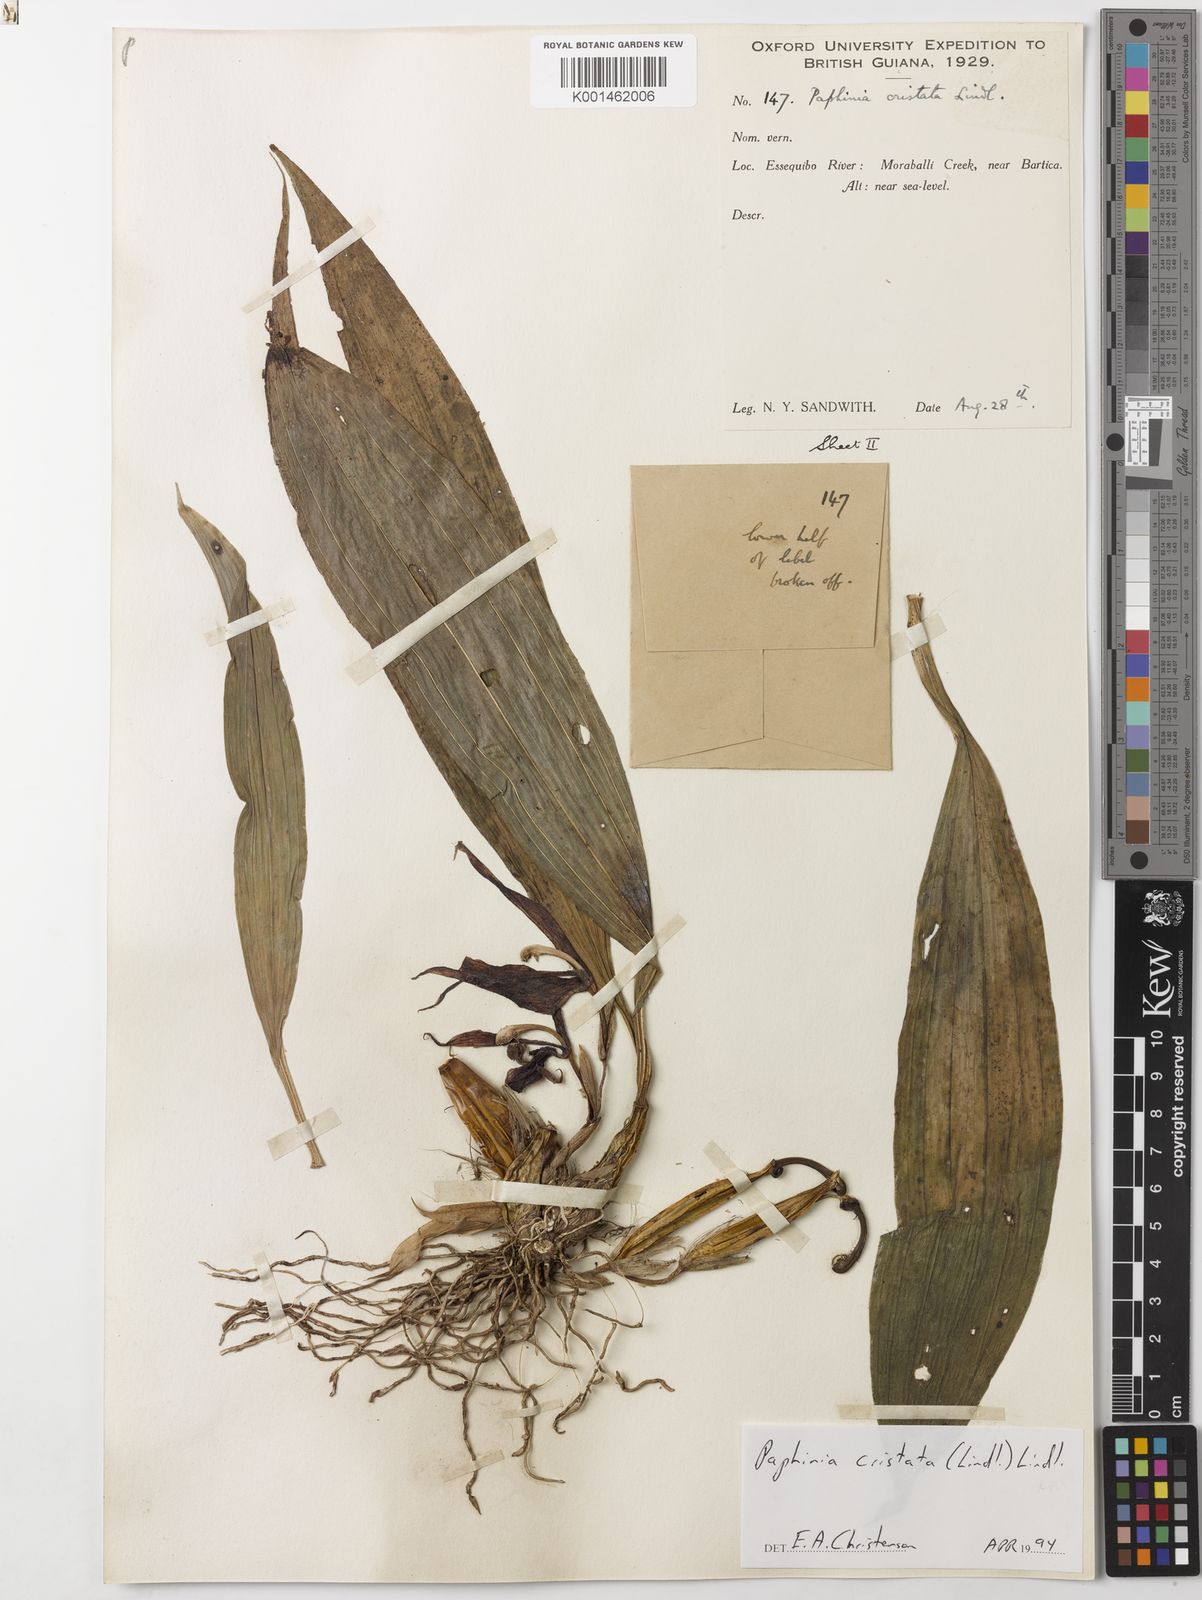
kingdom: Plantae
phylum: Tracheophyta
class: Liliopsida
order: Asparagales
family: Orchidaceae
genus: Paphinia
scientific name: Paphinia cristata
